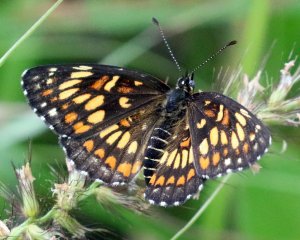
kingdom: Animalia
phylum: Arthropoda
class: Insecta
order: Lepidoptera
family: Nymphalidae
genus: Thessalia
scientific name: Thessalia theona
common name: Theona Checkerspot
